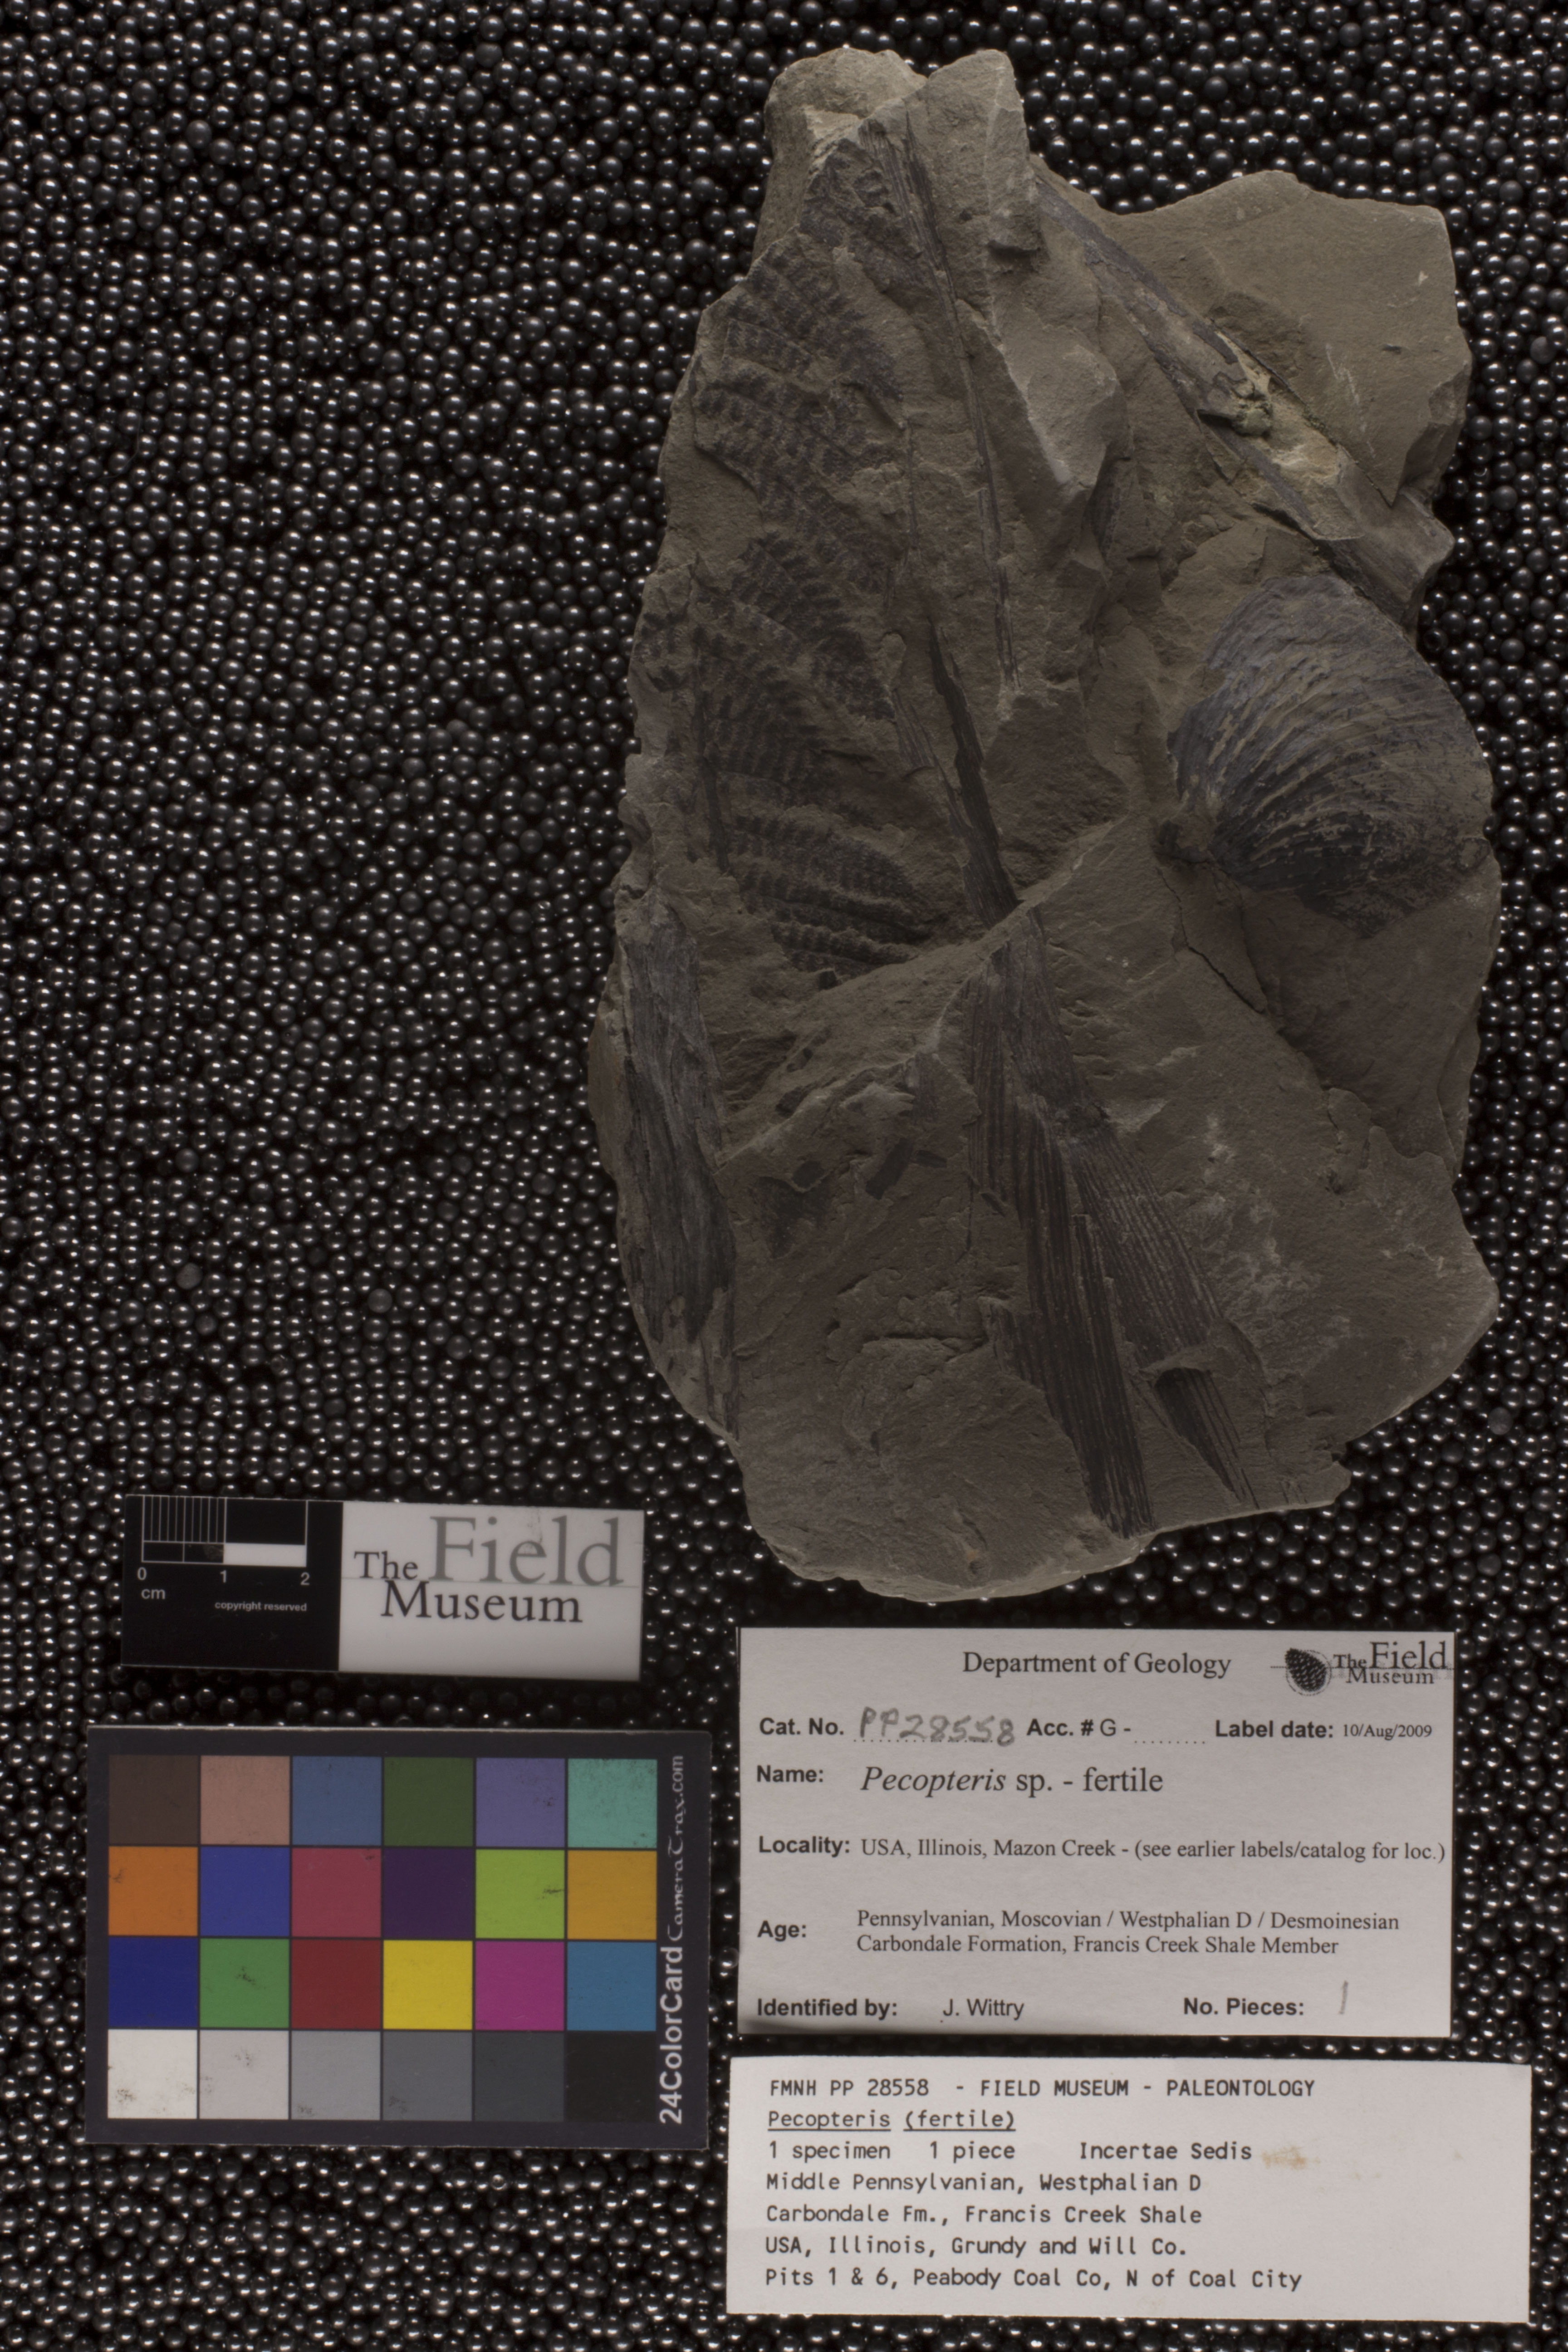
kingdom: Plantae
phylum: Tracheophyta
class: Polypodiopsida
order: Marattiales
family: Asterothecaceae
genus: Pecopteris
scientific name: Pecopteris
